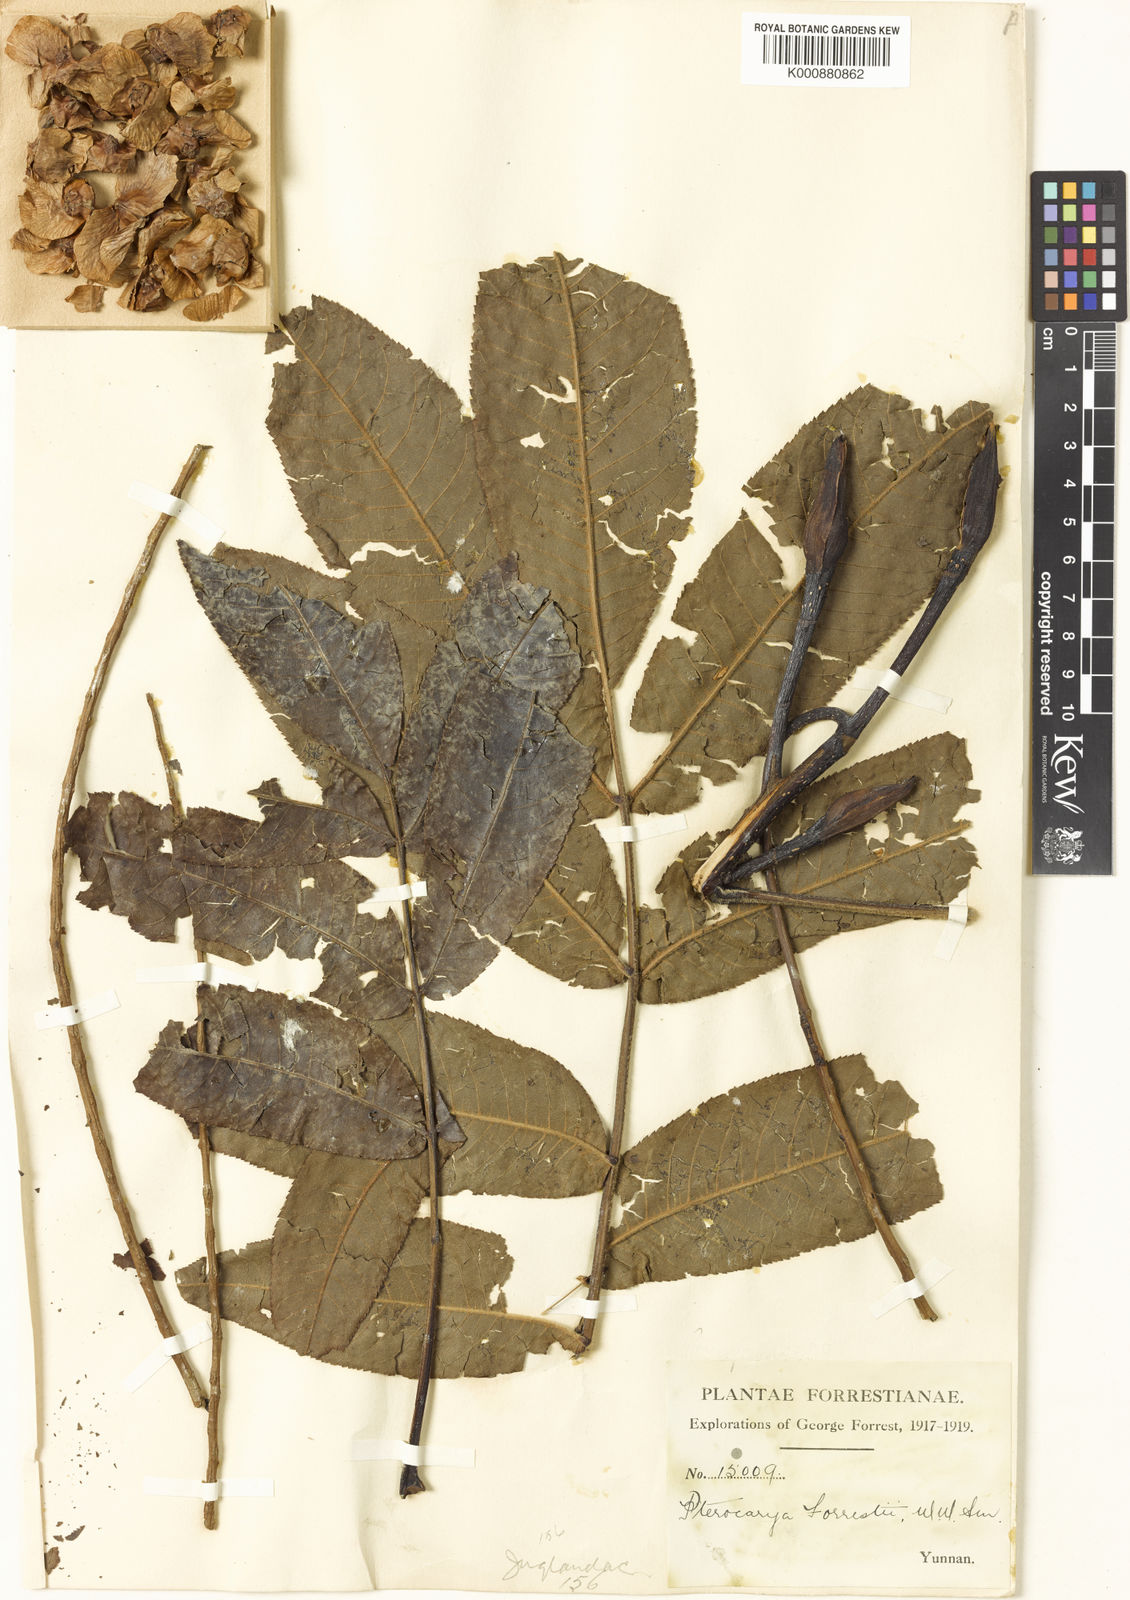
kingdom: Plantae
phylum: Tracheophyta
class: Magnoliopsida
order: Fagales
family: Juglandaceae
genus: Pterocarya
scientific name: Pterocarya
